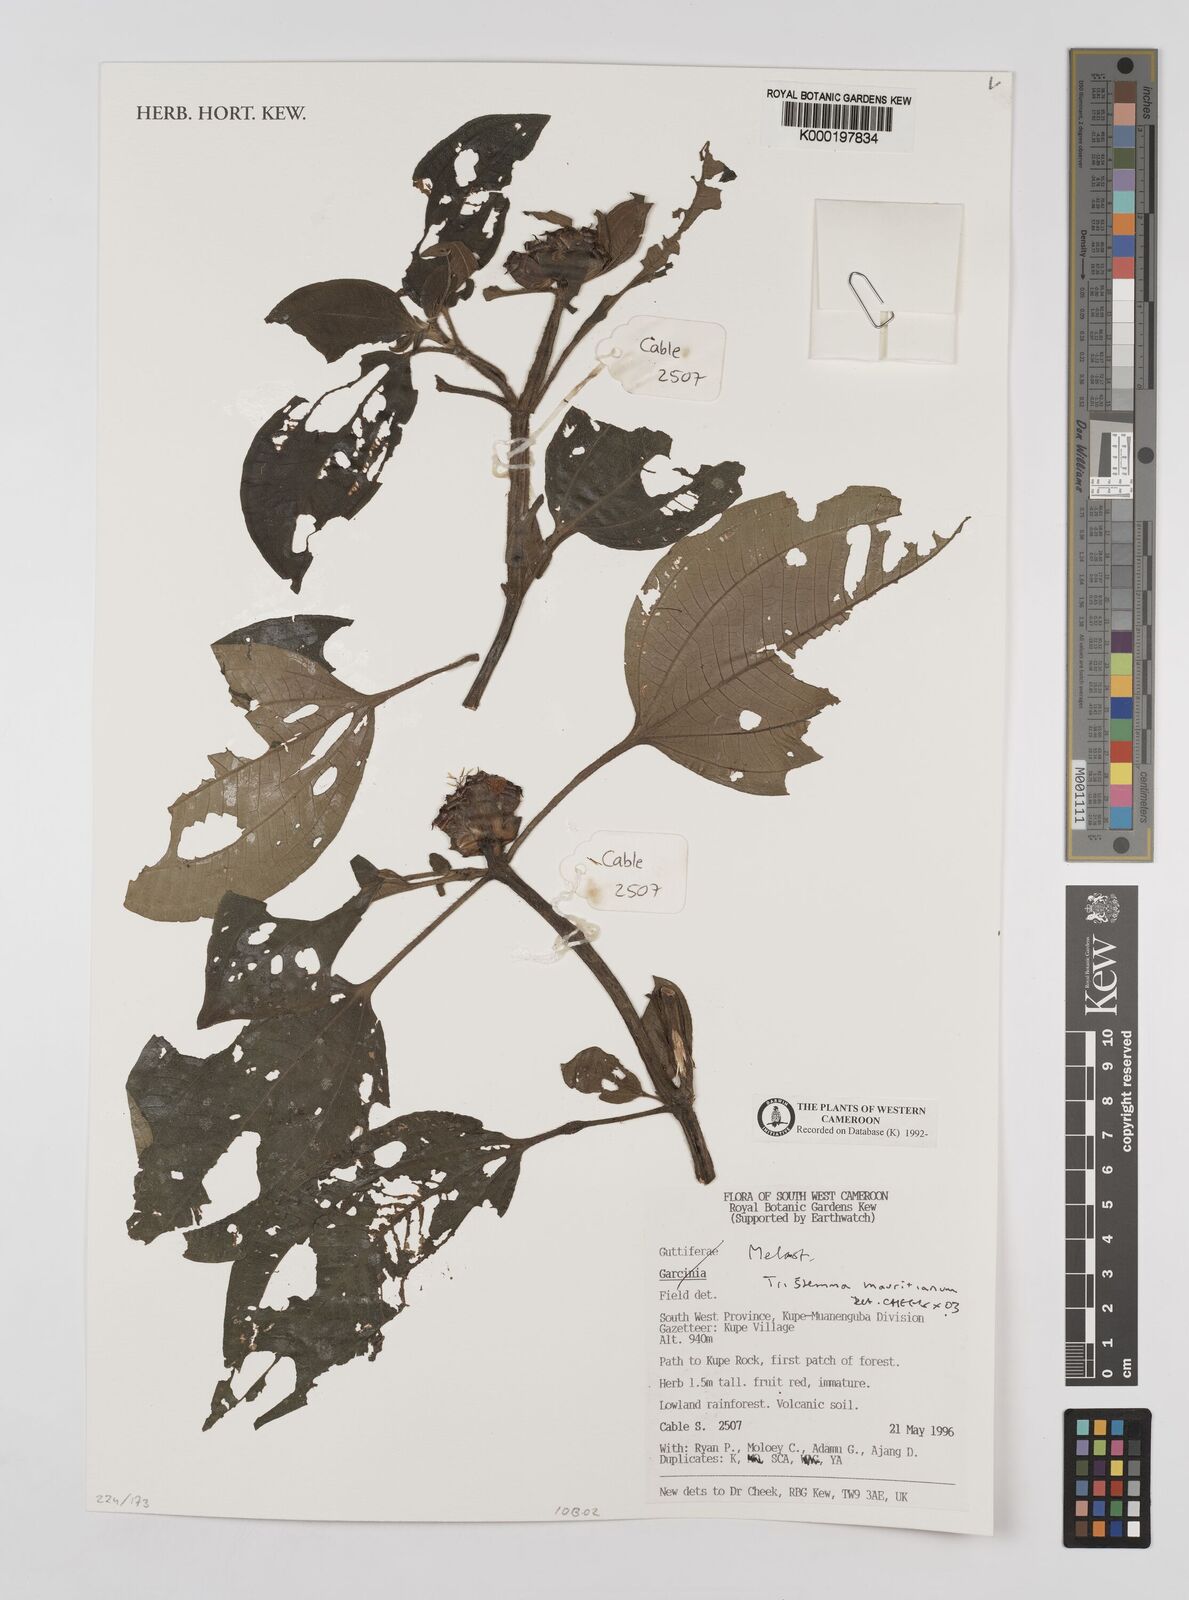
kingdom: Plantae
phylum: Tracheophyta
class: Magnoliopsida
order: Myrtales
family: Melastomataceae
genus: Tristemma
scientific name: Tristemma
